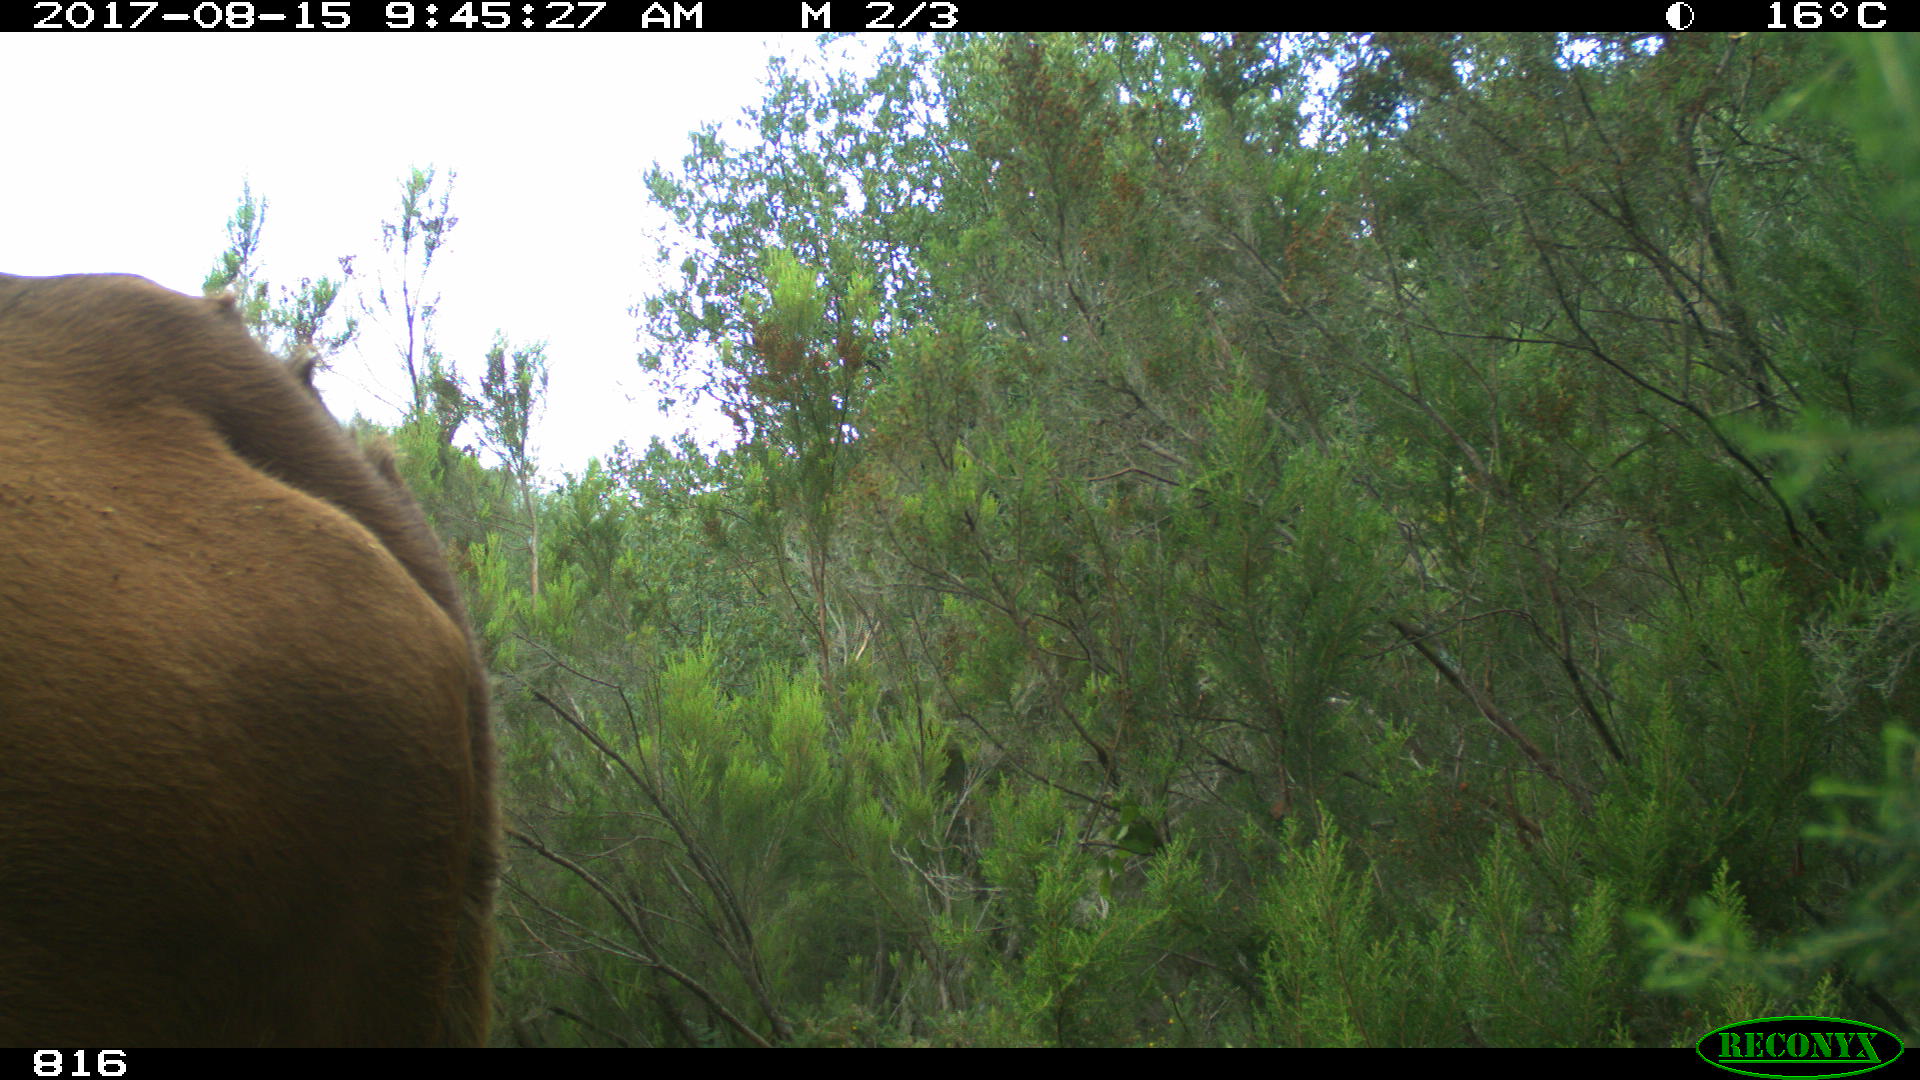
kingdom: Animalia
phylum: Chordata
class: Mammalia
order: Artiodactyla
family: Bovidae
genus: Bos
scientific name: Bos taurus
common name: Domesticated cattle
